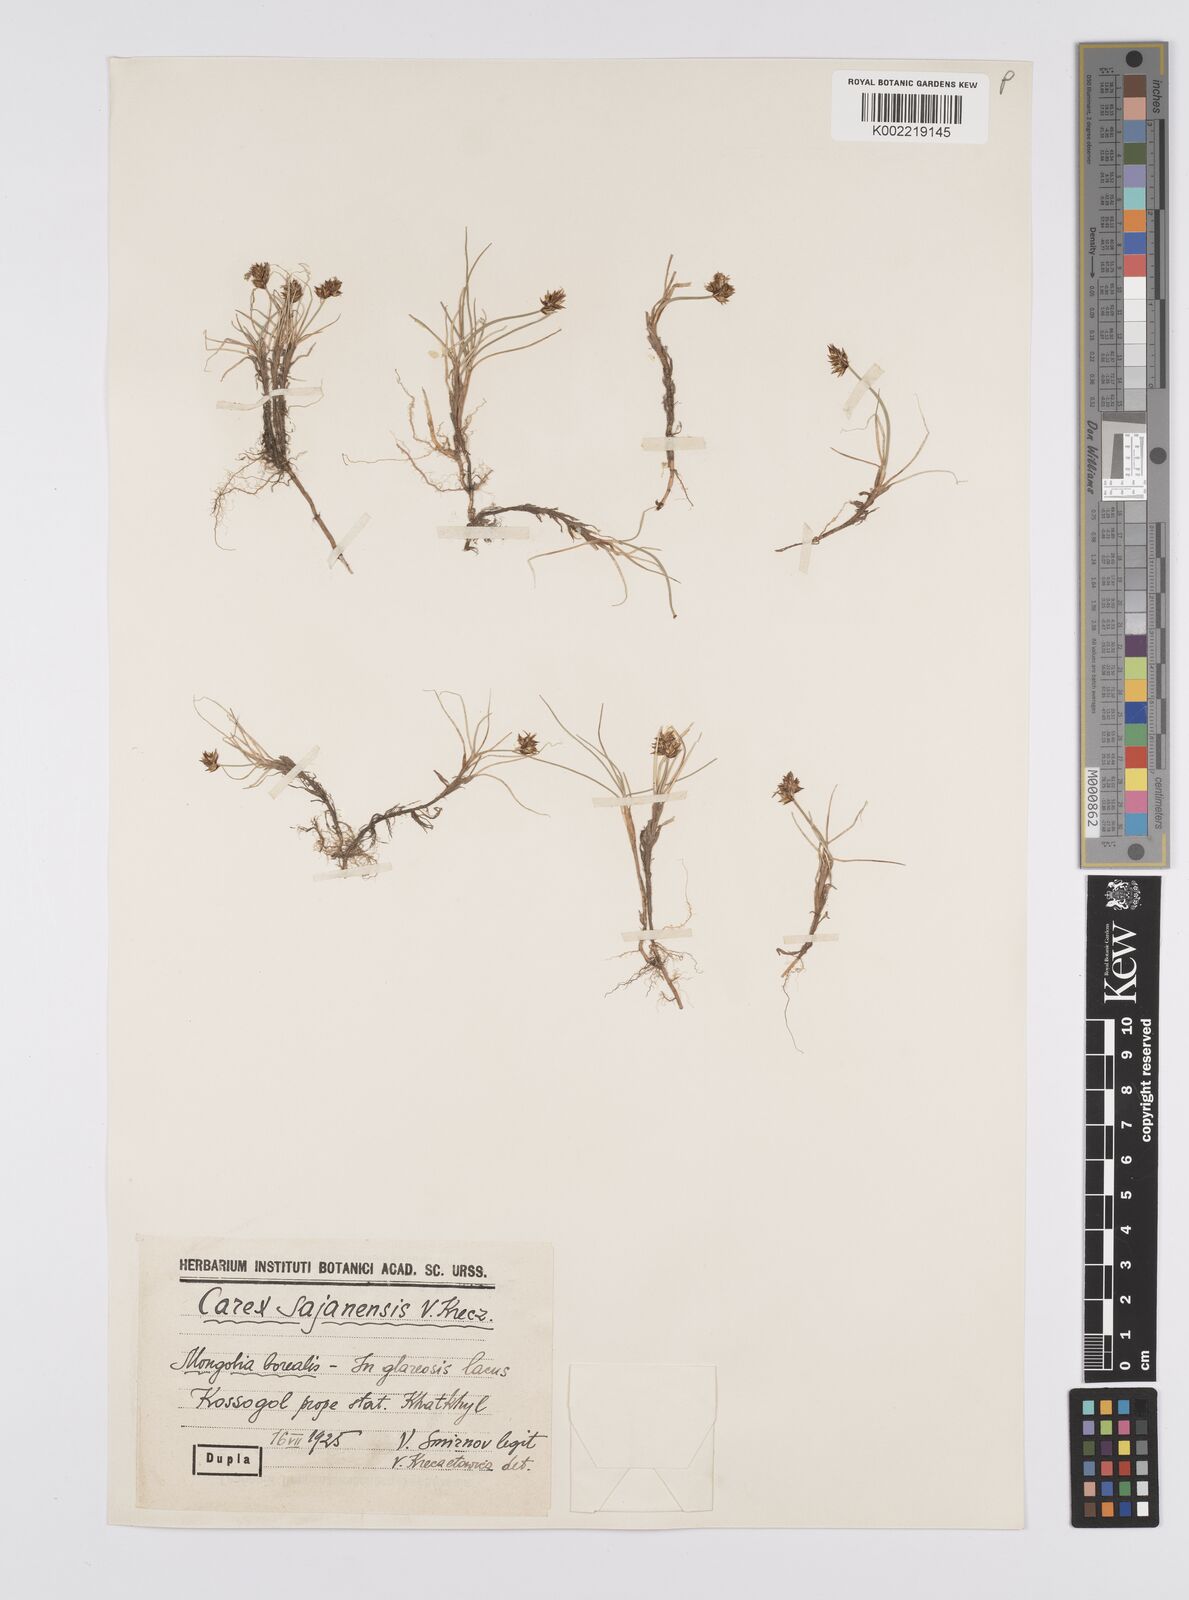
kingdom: Plantae
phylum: Tracheophyta
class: Liliopsida
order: Poales
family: Cyperaceae
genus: Carex
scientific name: Carex sajanensis
